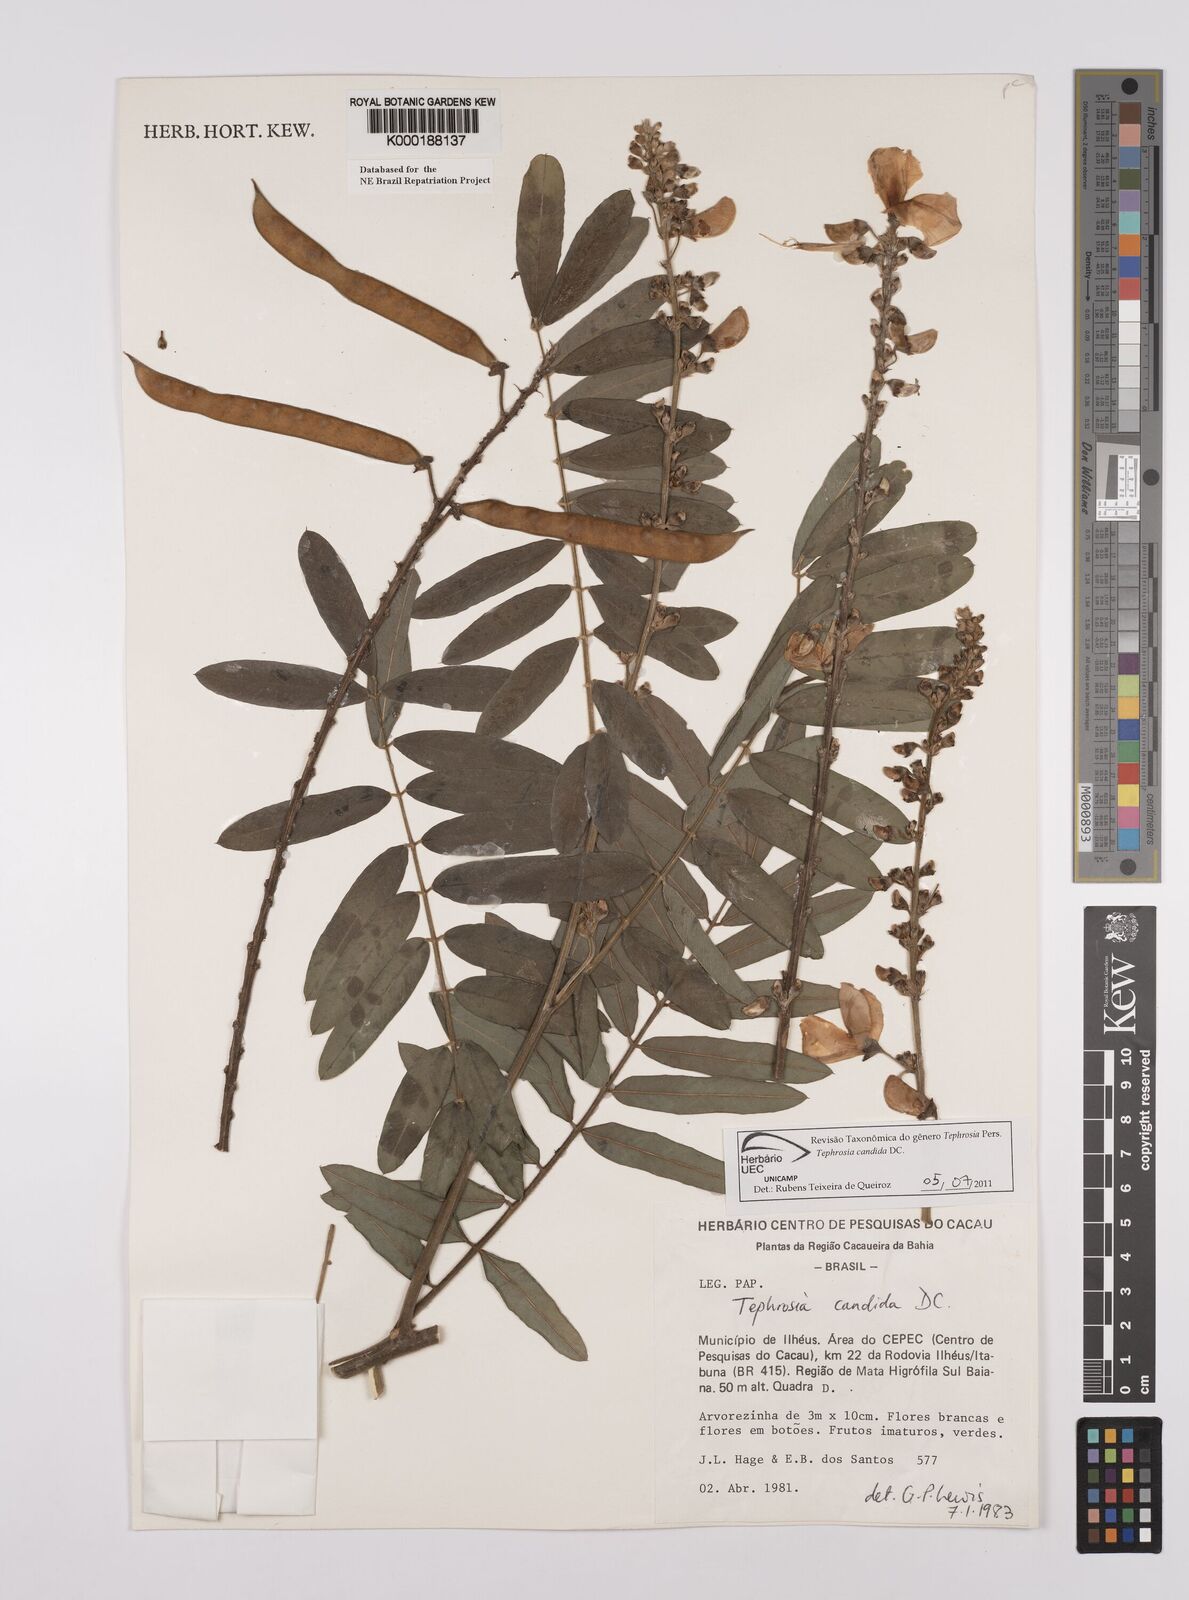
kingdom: Plantae
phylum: Tracheophyta
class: Magnoliopsida
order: Fabales
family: Fabaceae
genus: Tephrosia
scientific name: Tephrosia candida
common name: White tephrosia
